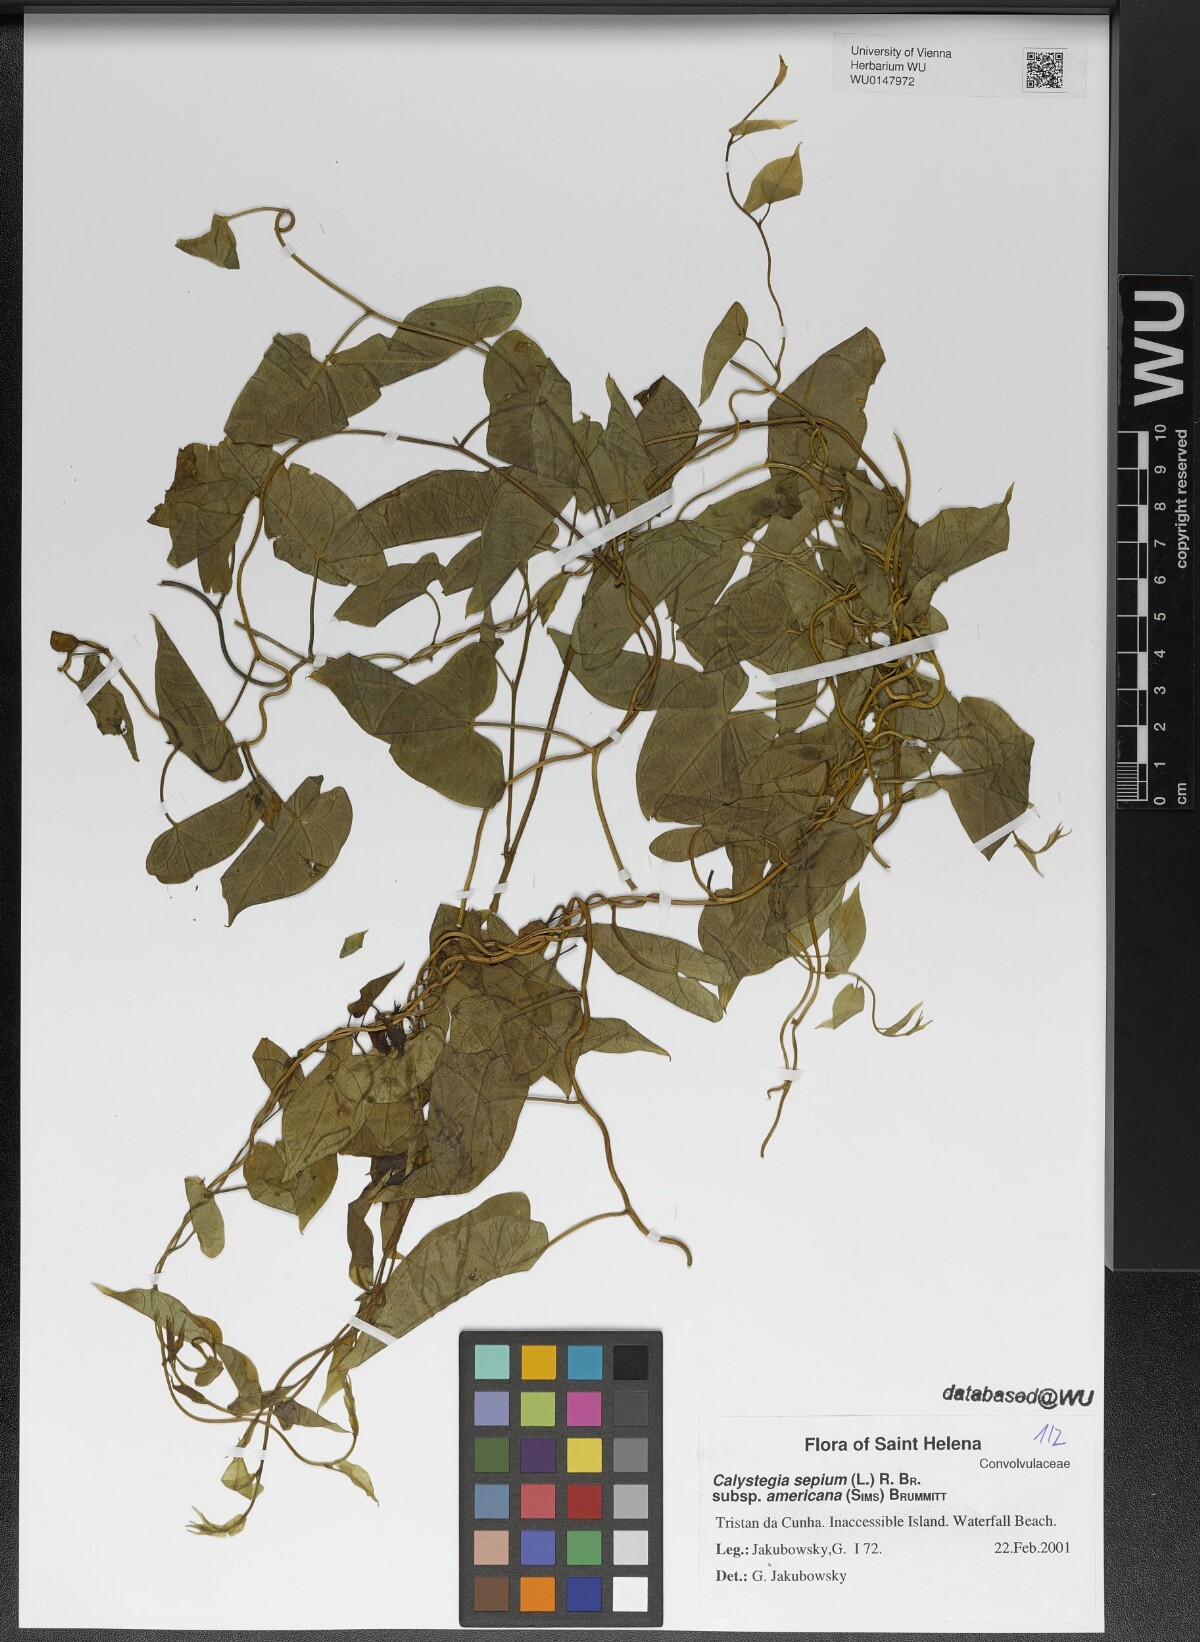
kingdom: Plantae
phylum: Tracheophyta
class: Magnoliopsida
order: Solanales
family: Convolvulaceae
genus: Calystegia
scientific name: Calystegia sepium
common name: Hedge bindweed
